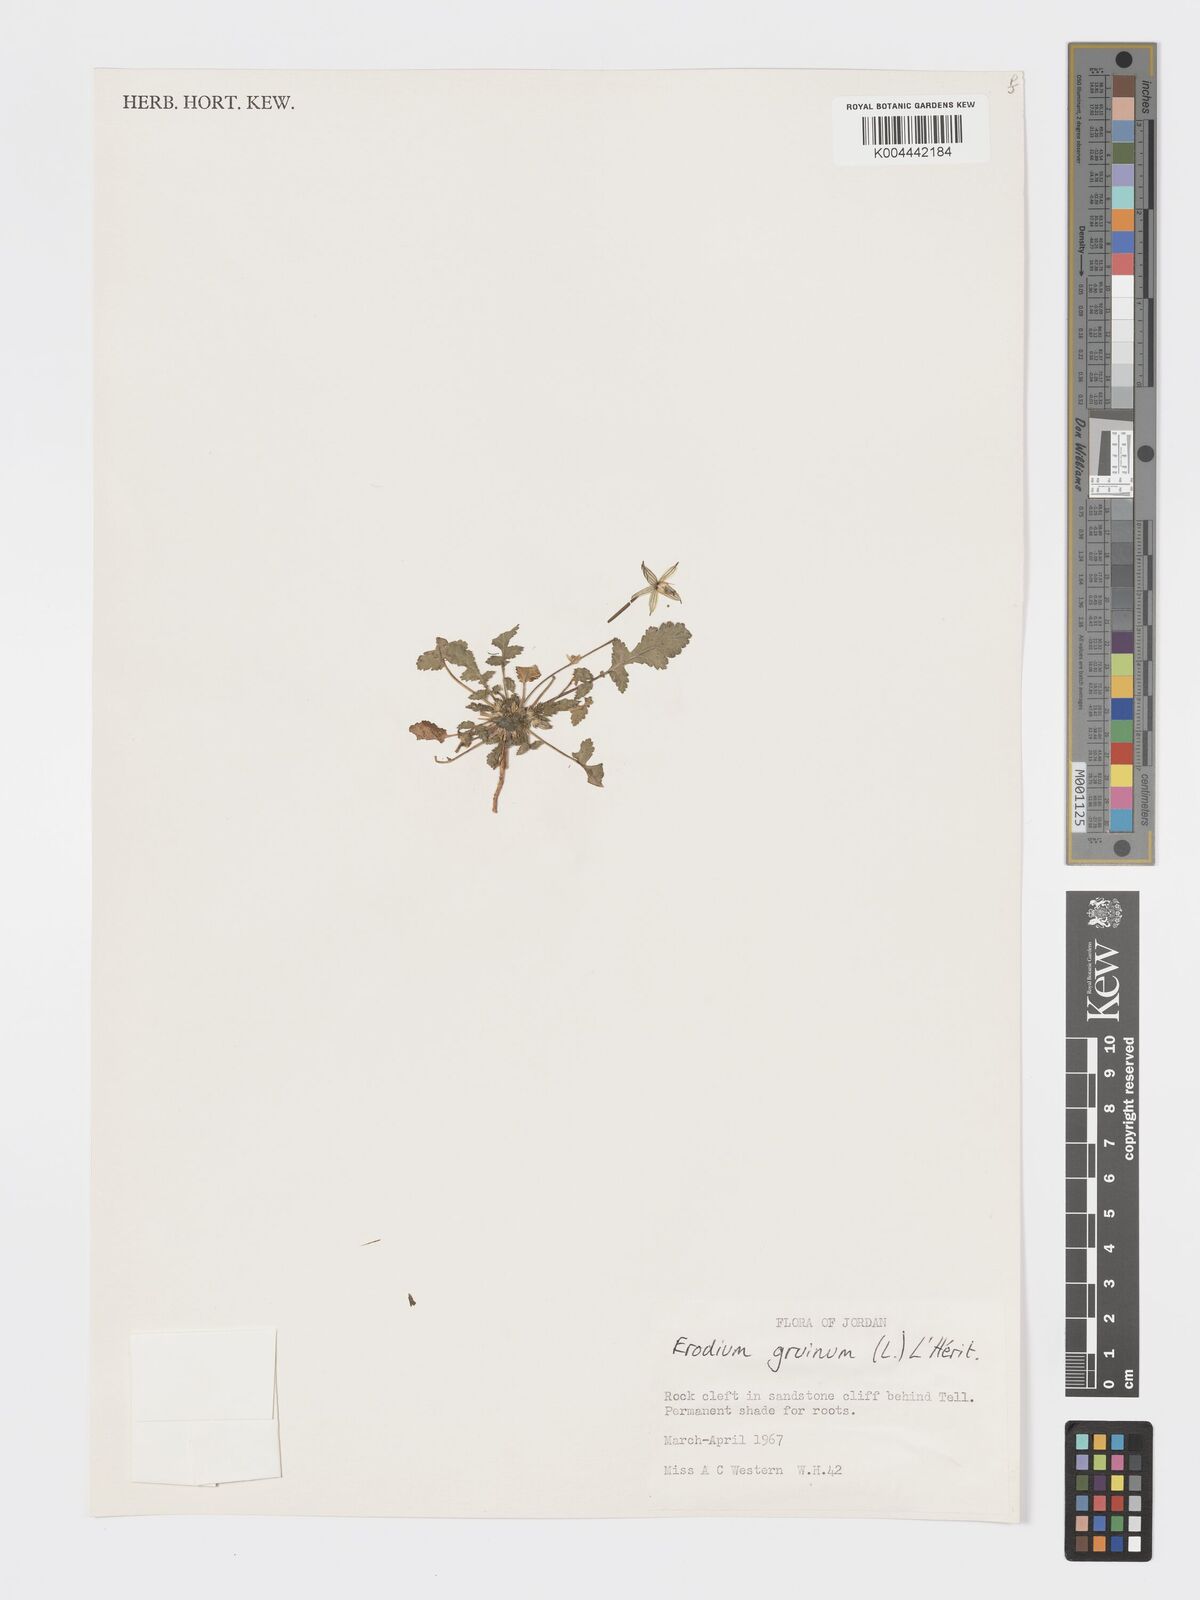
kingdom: Plantae
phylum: Tracheophyta
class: Magnoliopsida
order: Geraniales
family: Geraniaceae
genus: Erodium
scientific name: Erodium gruinum
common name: Iranian stork's bill
